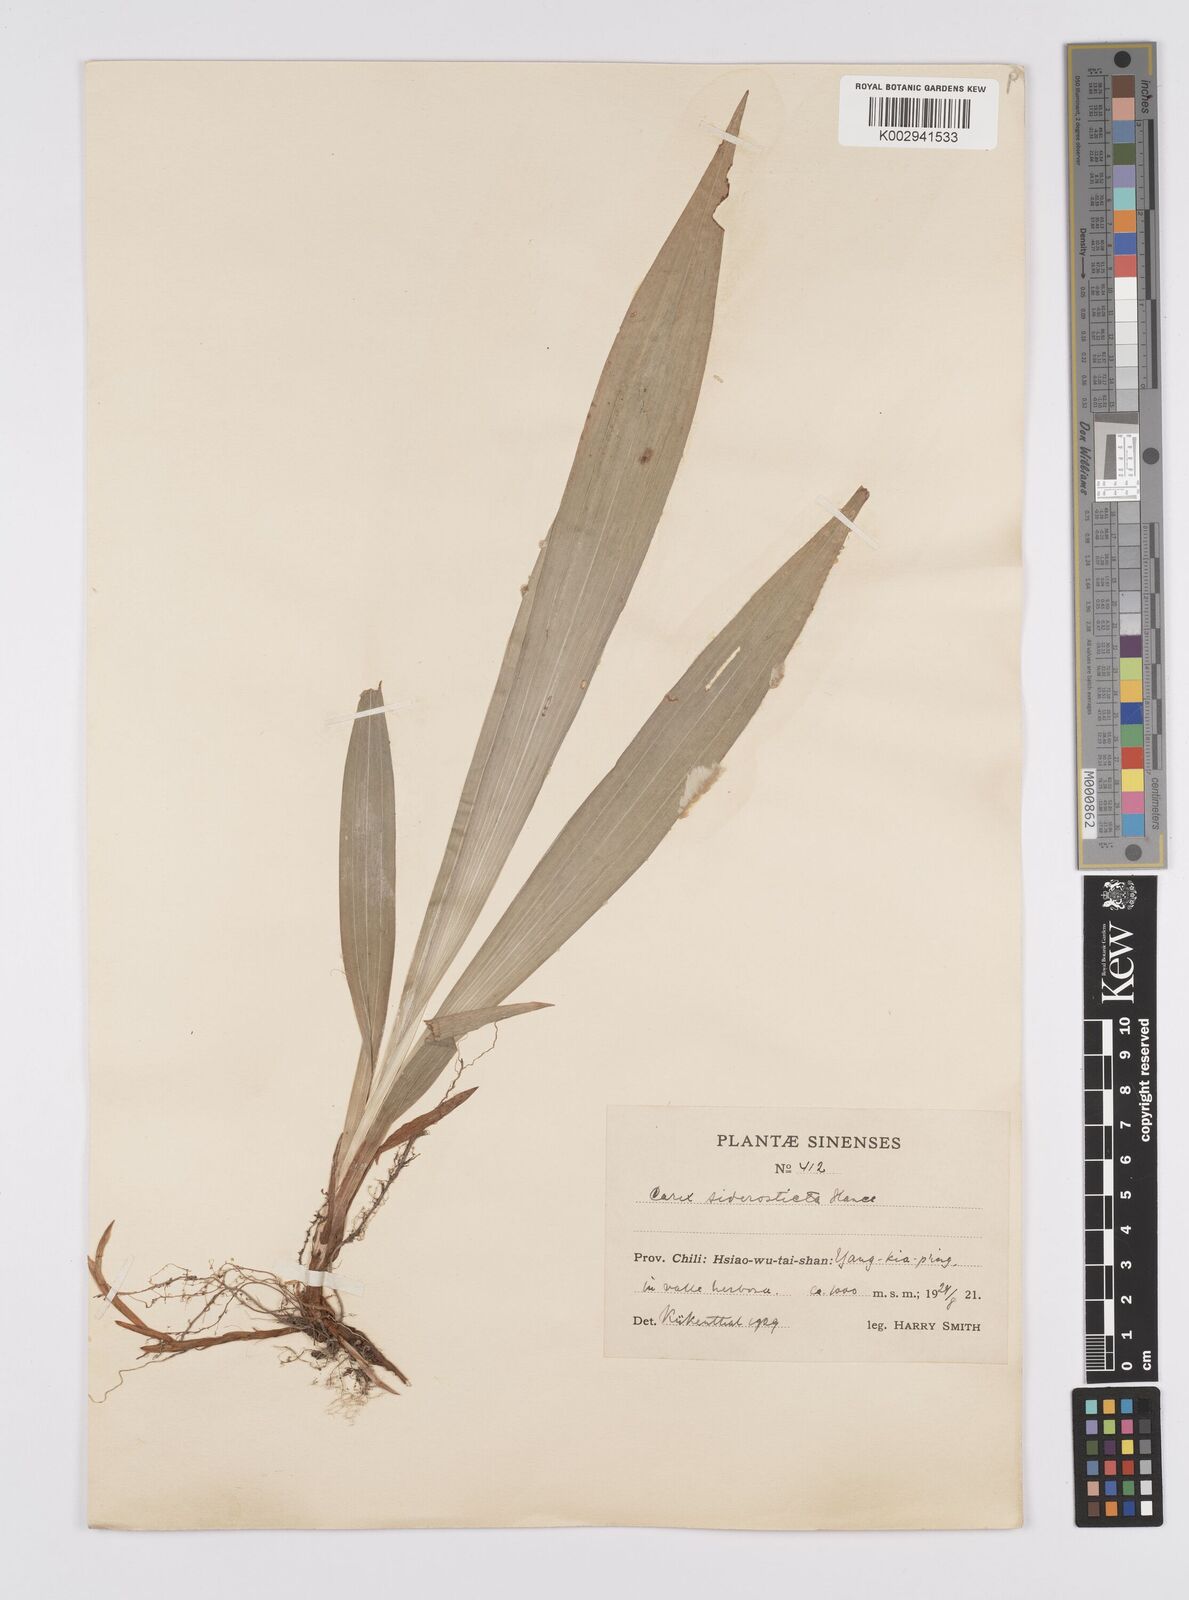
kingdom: Plantae
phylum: Tracheophyta
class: Liliopsida
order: Poales
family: Cyperaceae
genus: Carex
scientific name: Carex siderosticta
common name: Broadleaf sedge
